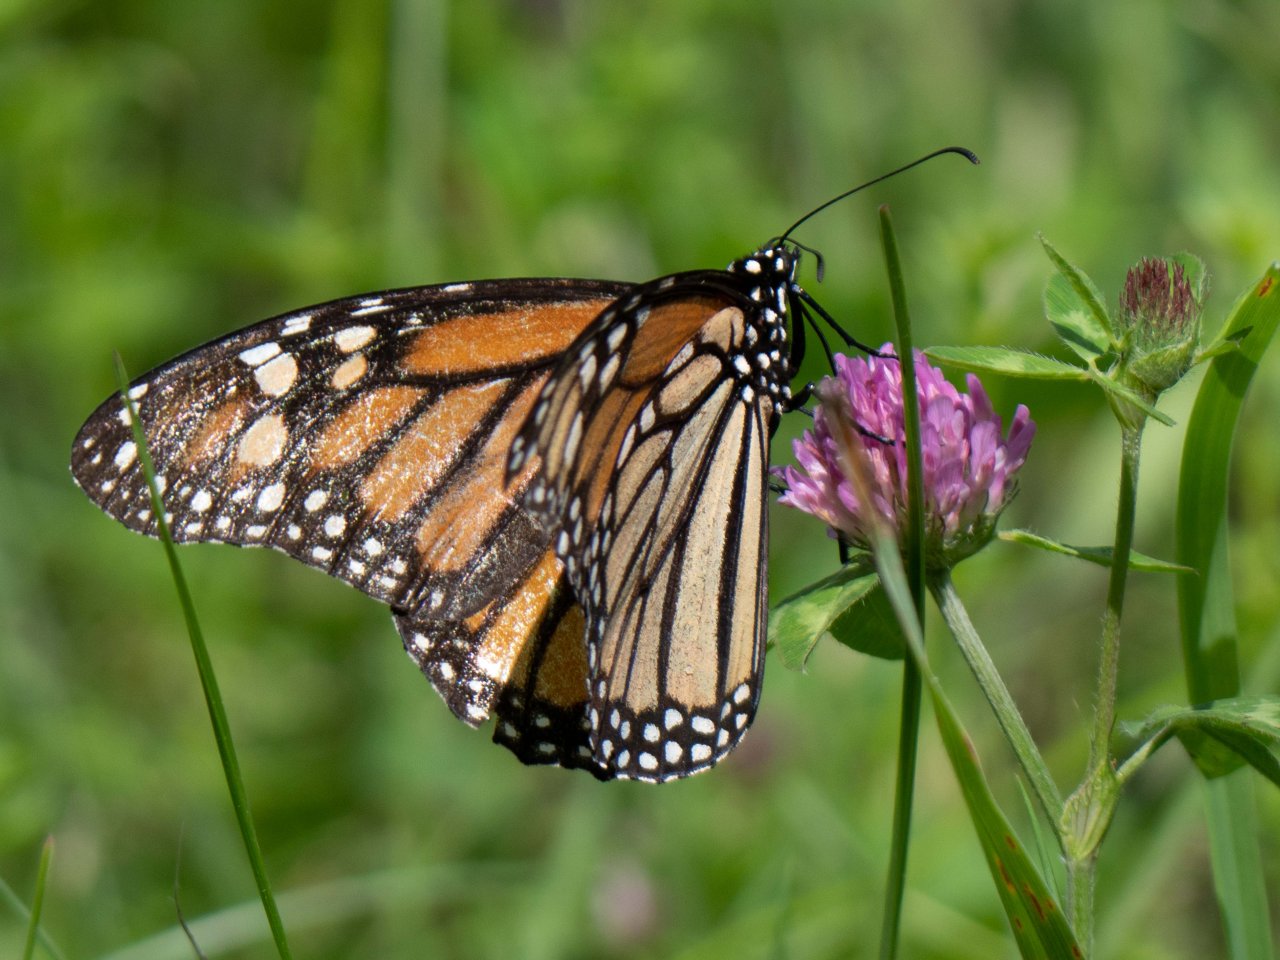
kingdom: Animalia
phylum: Arthropoda
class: Insecta
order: Lepidoptera
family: Nymphalidae
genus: Danaus
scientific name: Danaus plexippus
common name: Monarch
